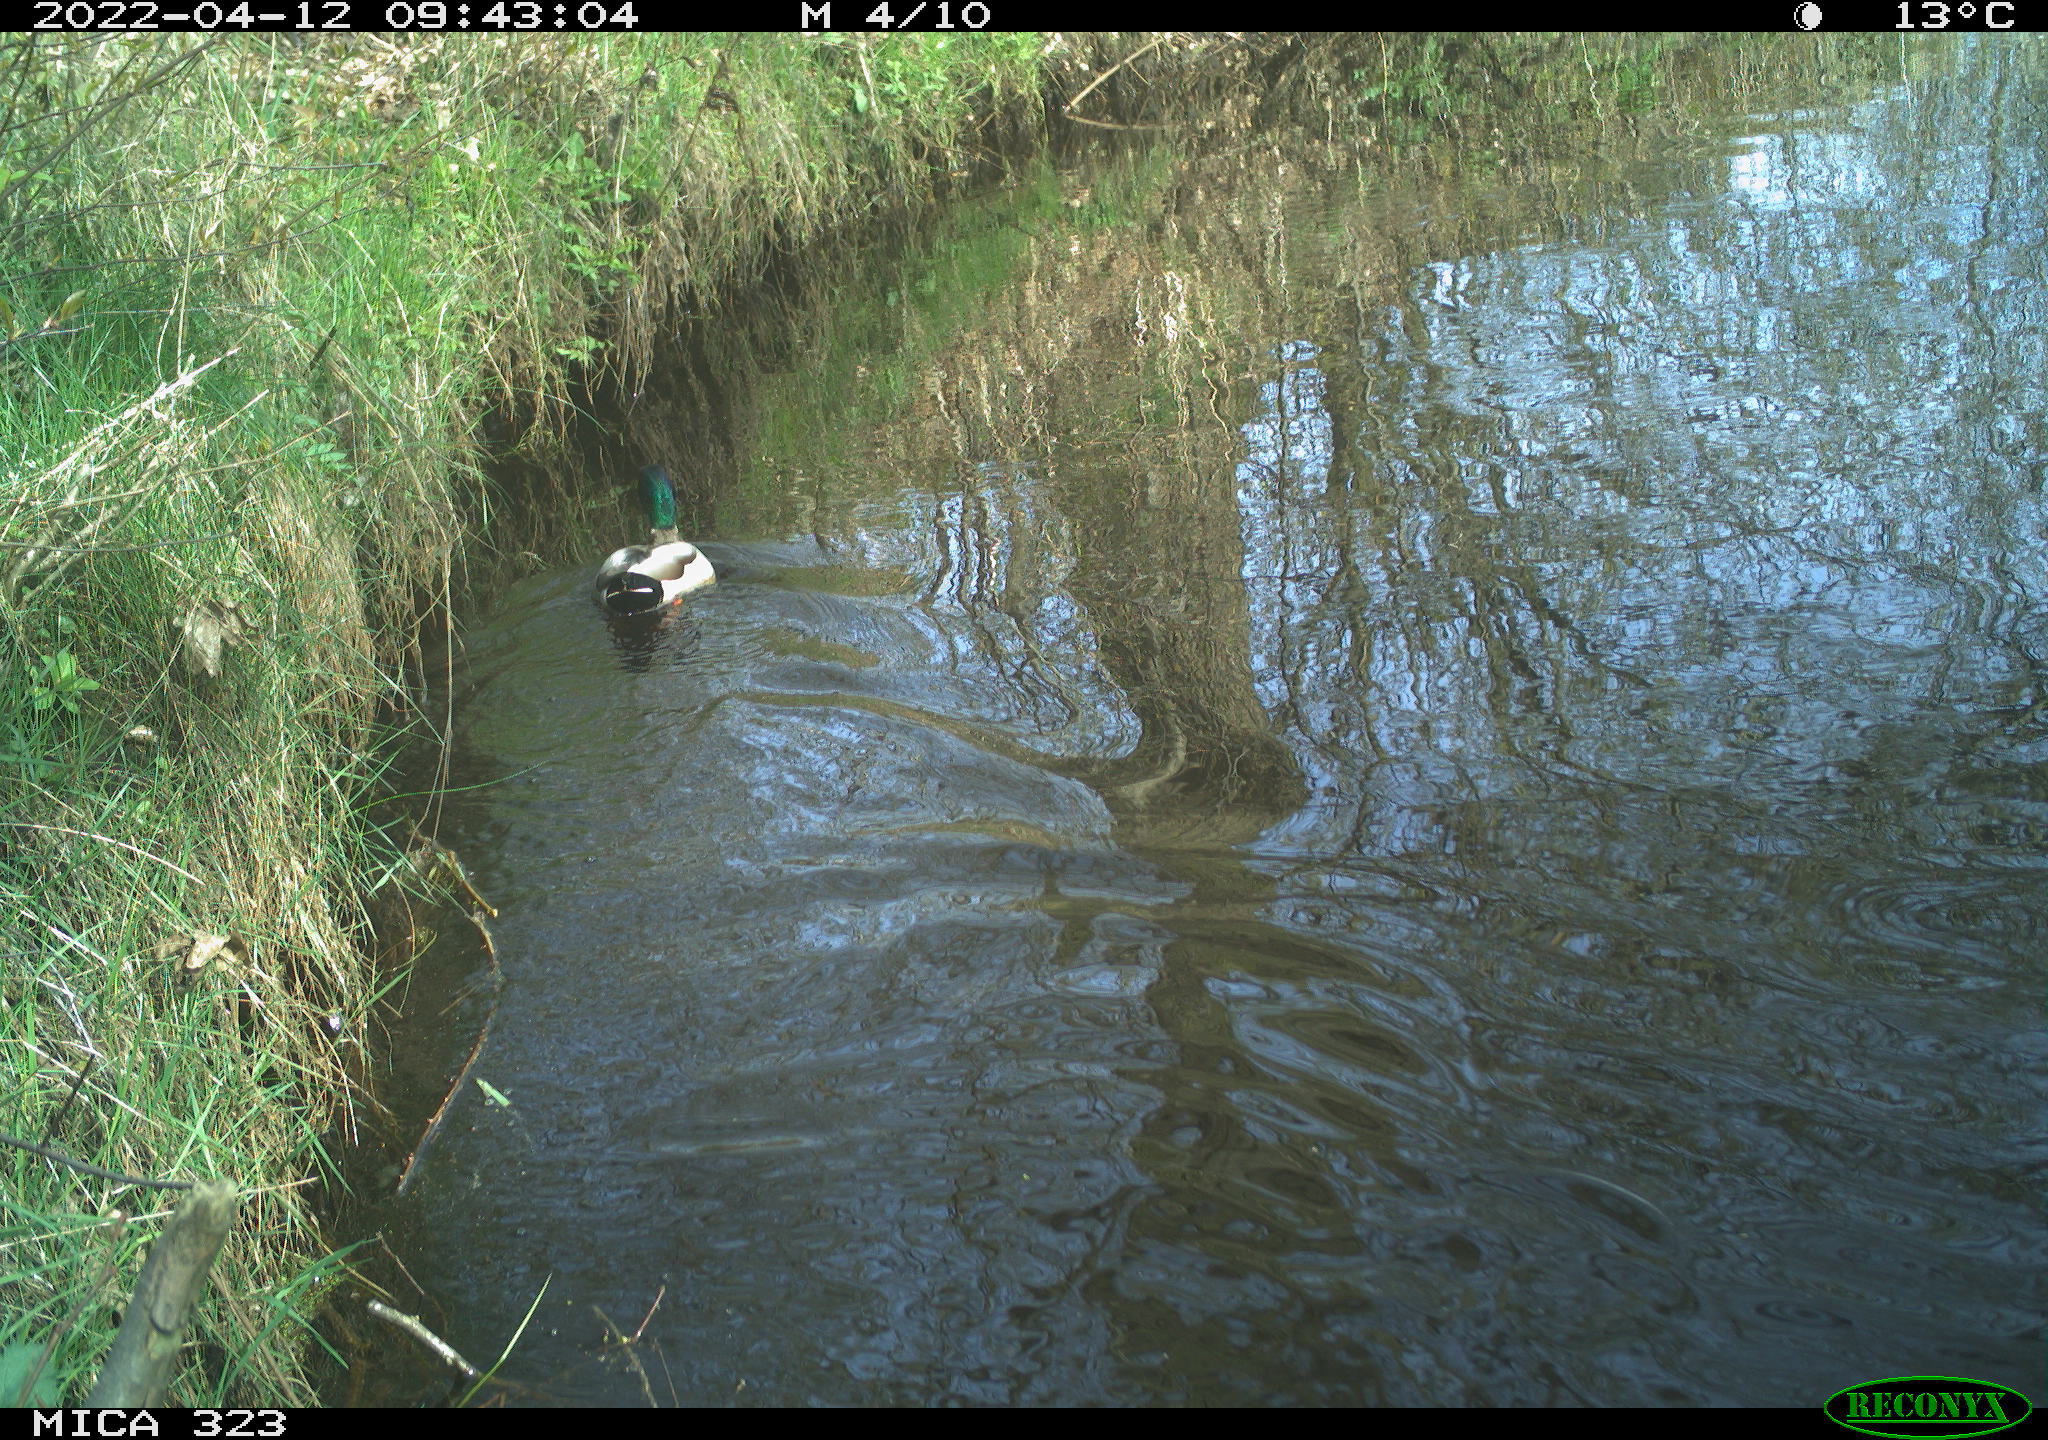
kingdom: Animalia
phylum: Chordata
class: Aves
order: Anseriformes
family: Anatidae
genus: Anas
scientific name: Anas platyrhynchos
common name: Mallard
